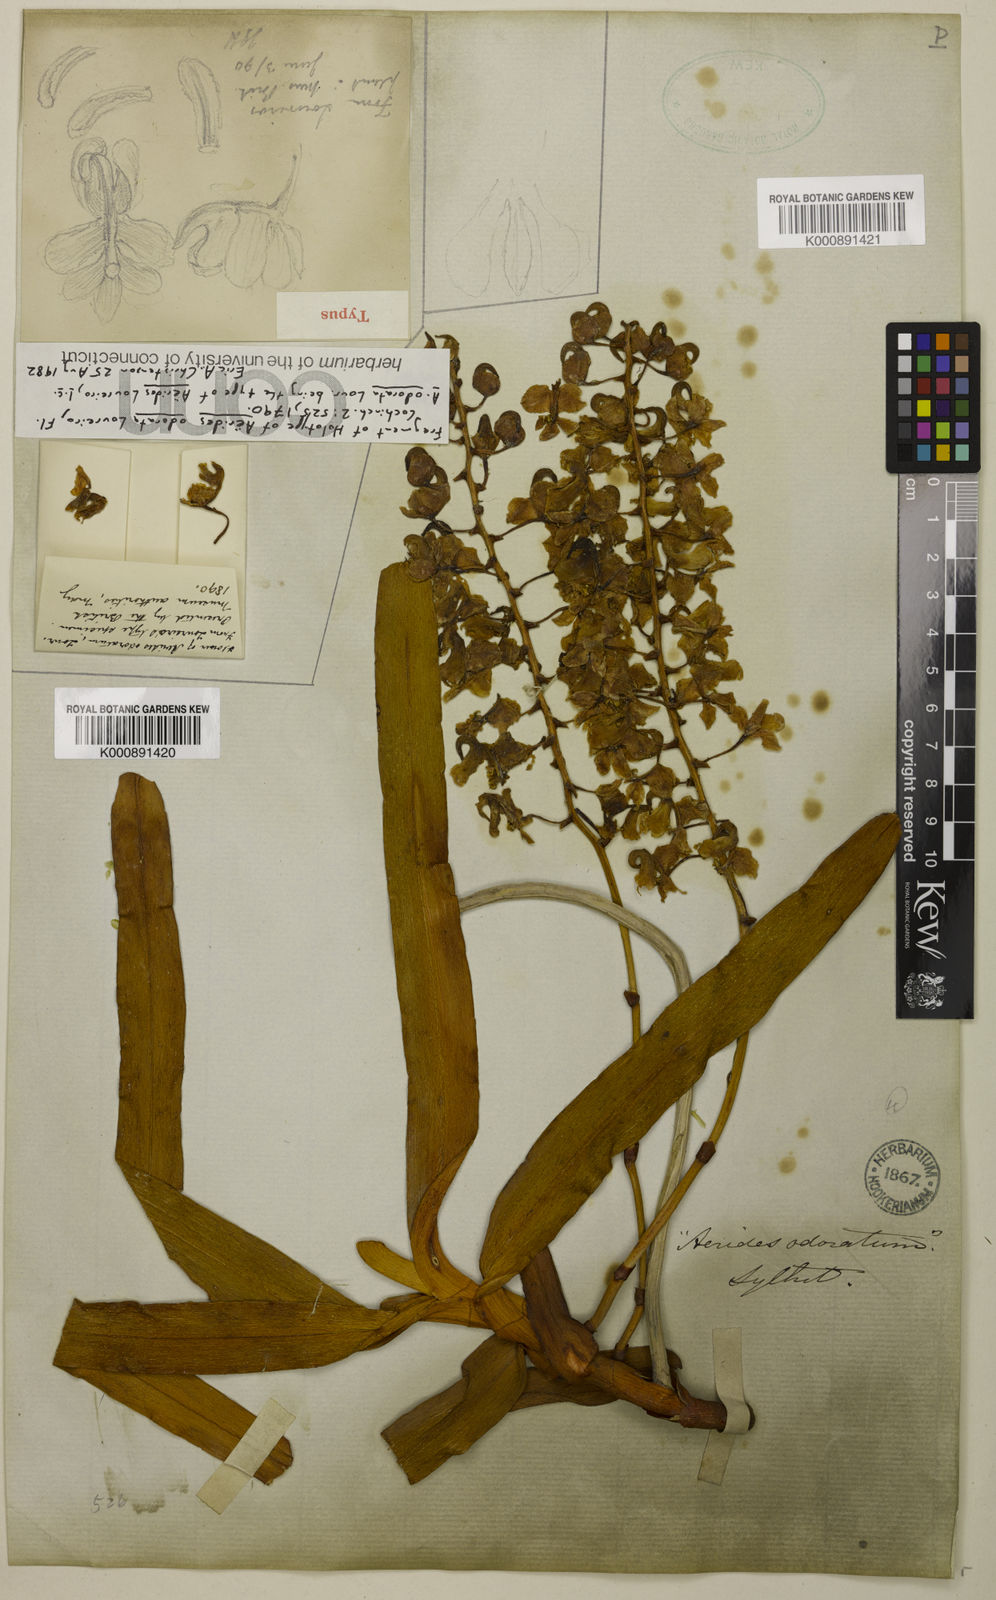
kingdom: Plantae
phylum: Tracheophyta
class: Liliopsida
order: Asparagales
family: Orchidaceae
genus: Aerides
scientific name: Aerides odorata
